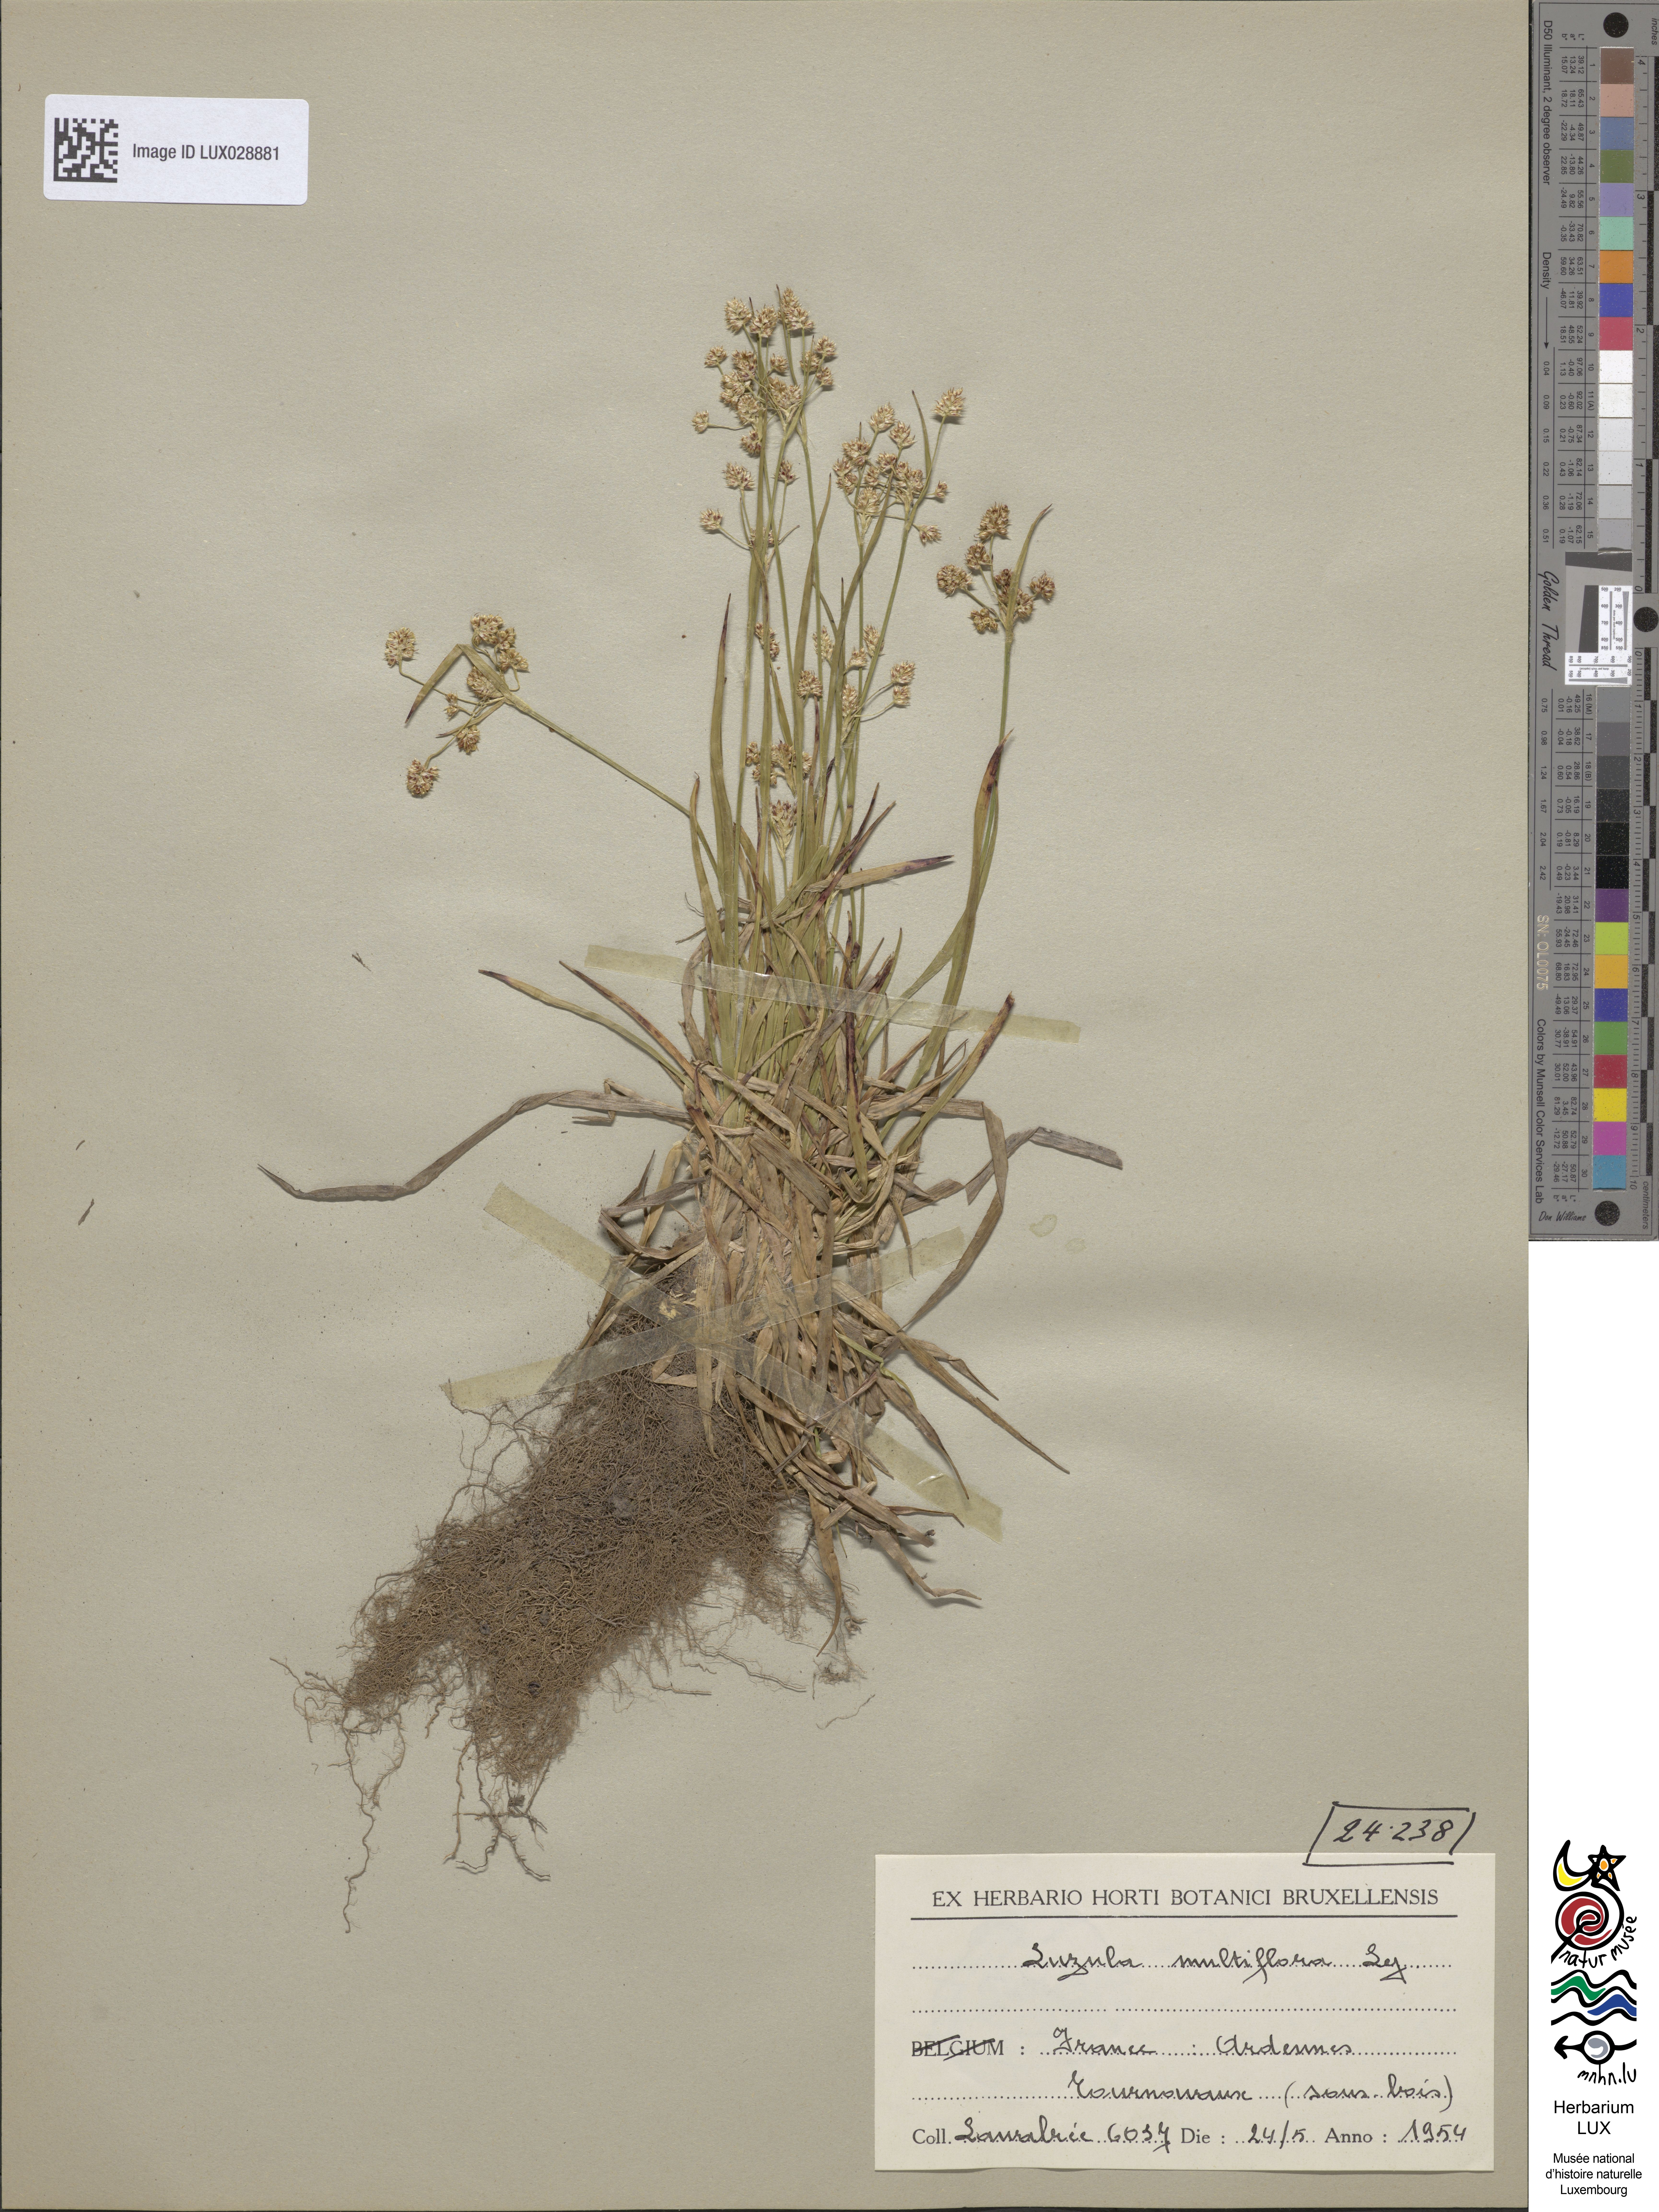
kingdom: Plantae
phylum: Tracheophyta
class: Liliopsida
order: Poales
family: Juncaceae
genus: Luzula
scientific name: Luzula multiflora
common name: Heath wood-rush
